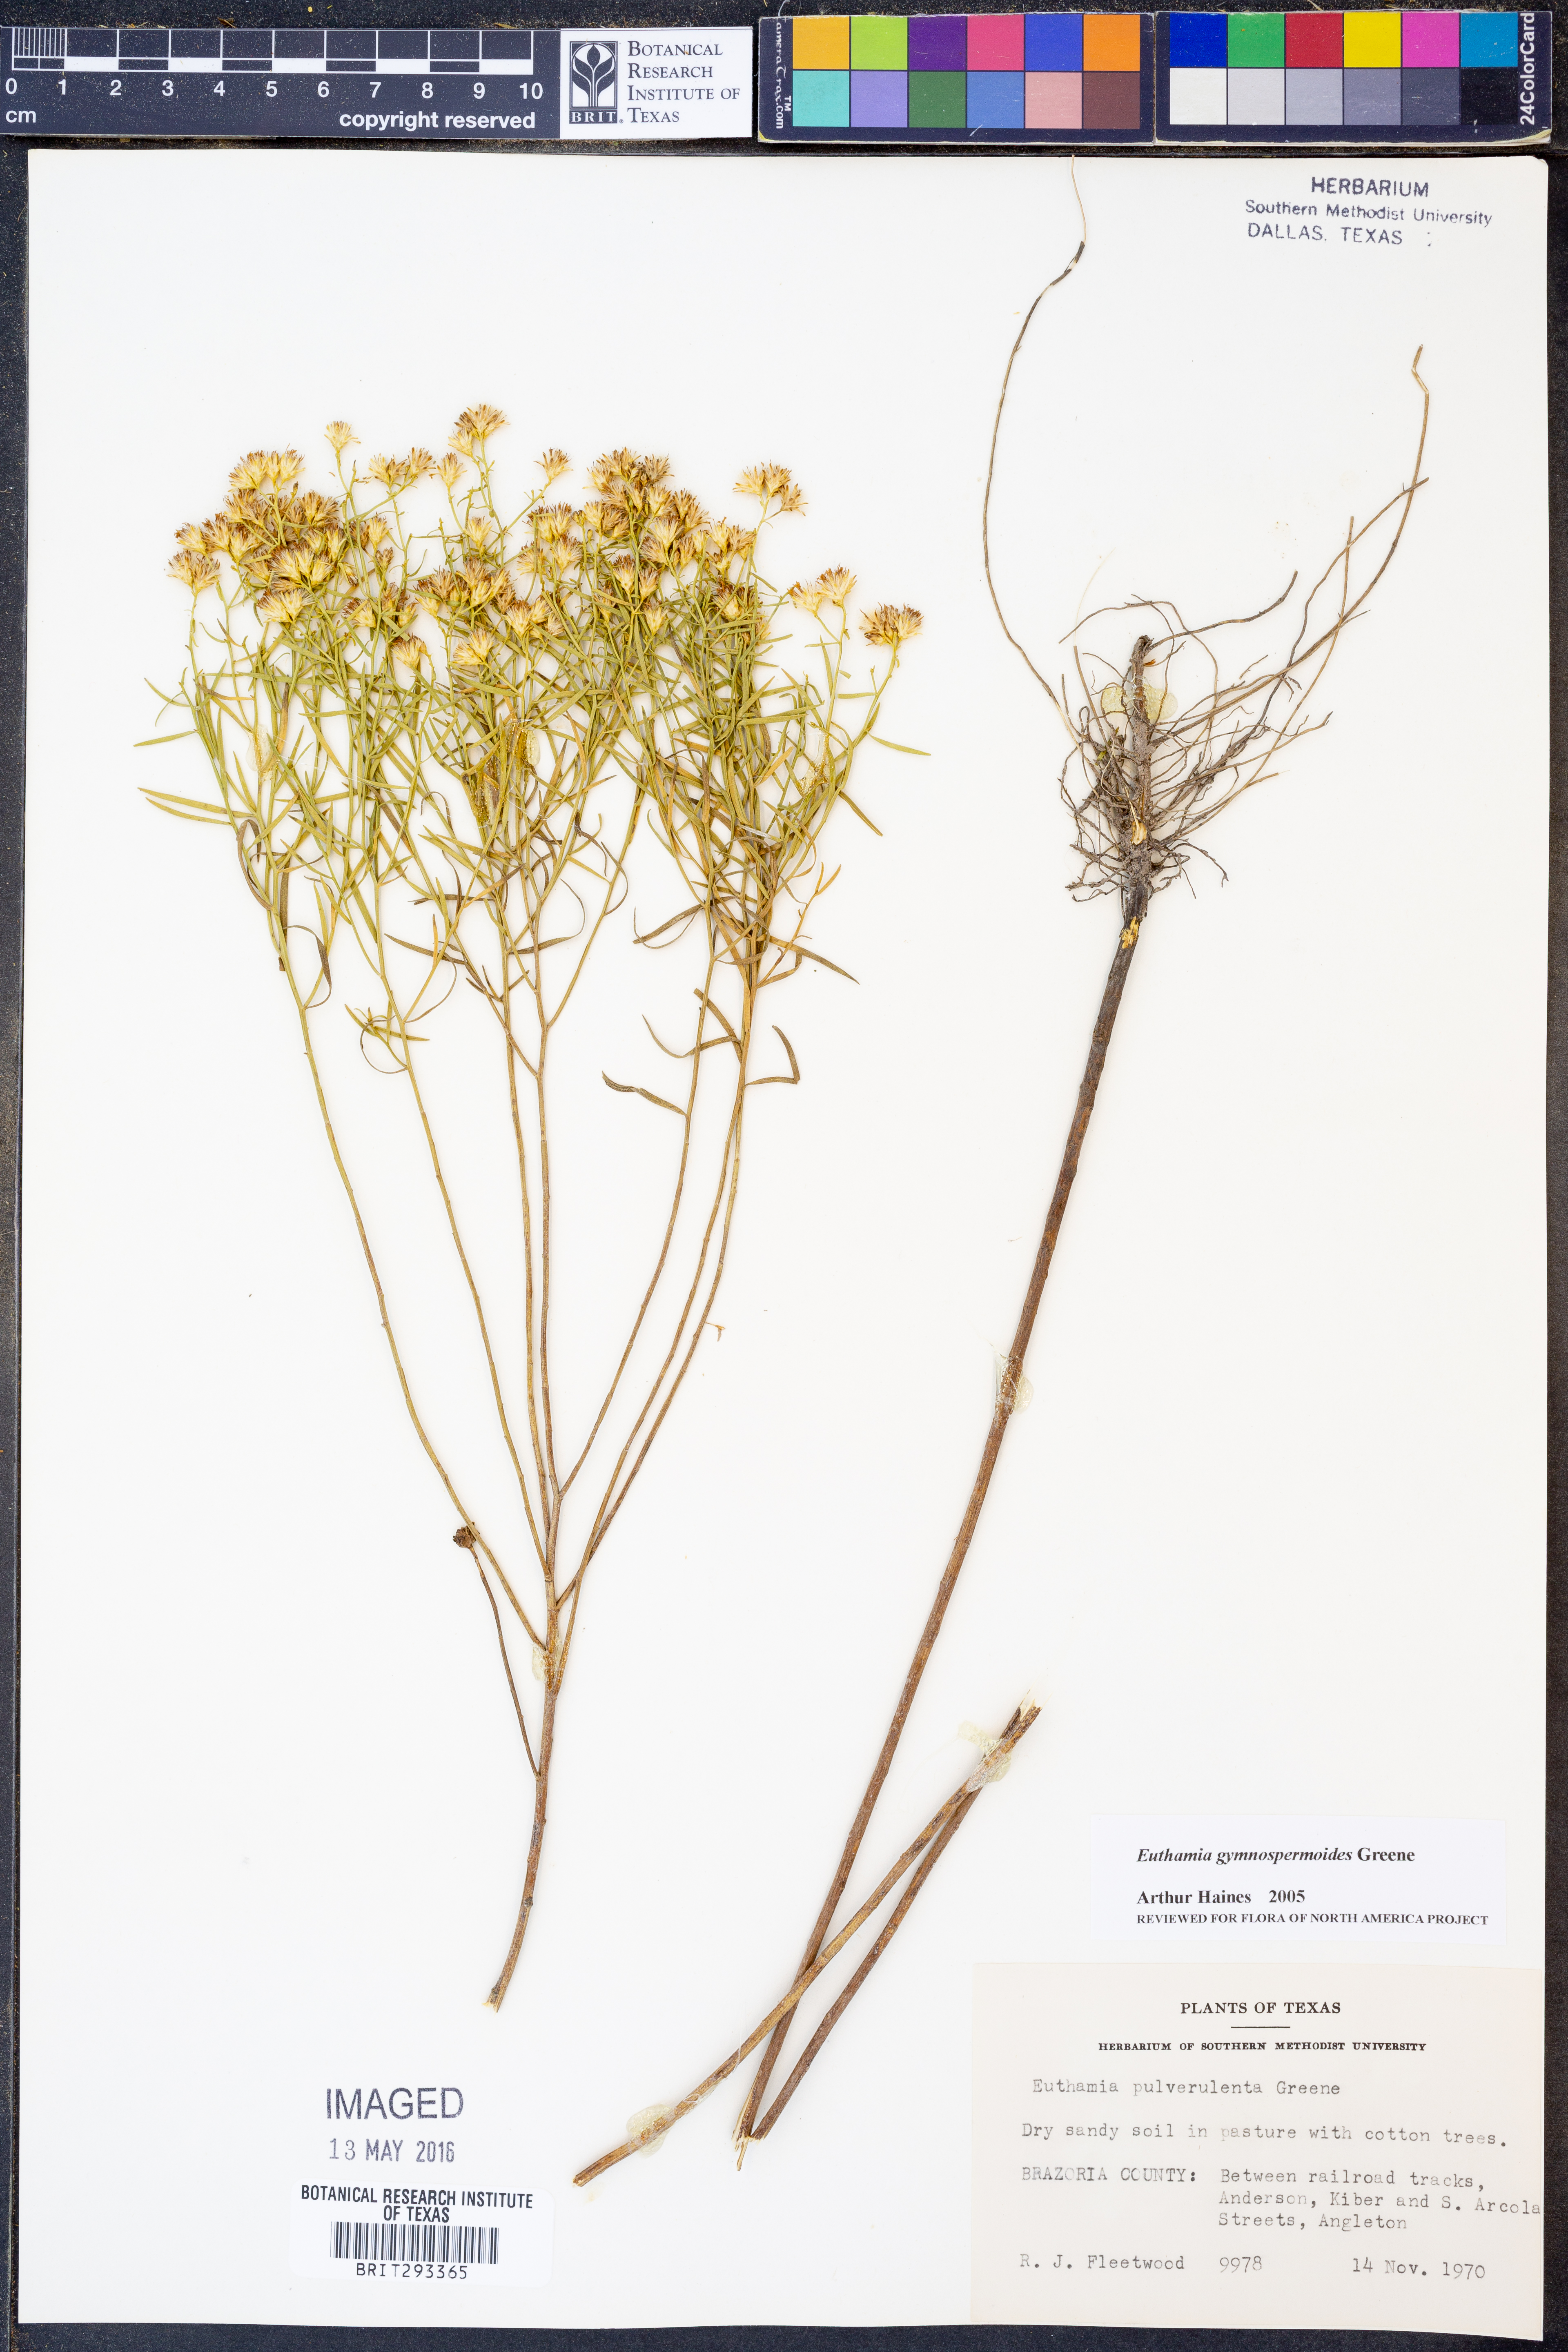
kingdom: Plantae
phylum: Tracheophyta
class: Magnoliopsida
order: Asterales
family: Asteraceae
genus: Euthamia
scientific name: Euthamia gymnospermoides
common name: Great plains goldentop
